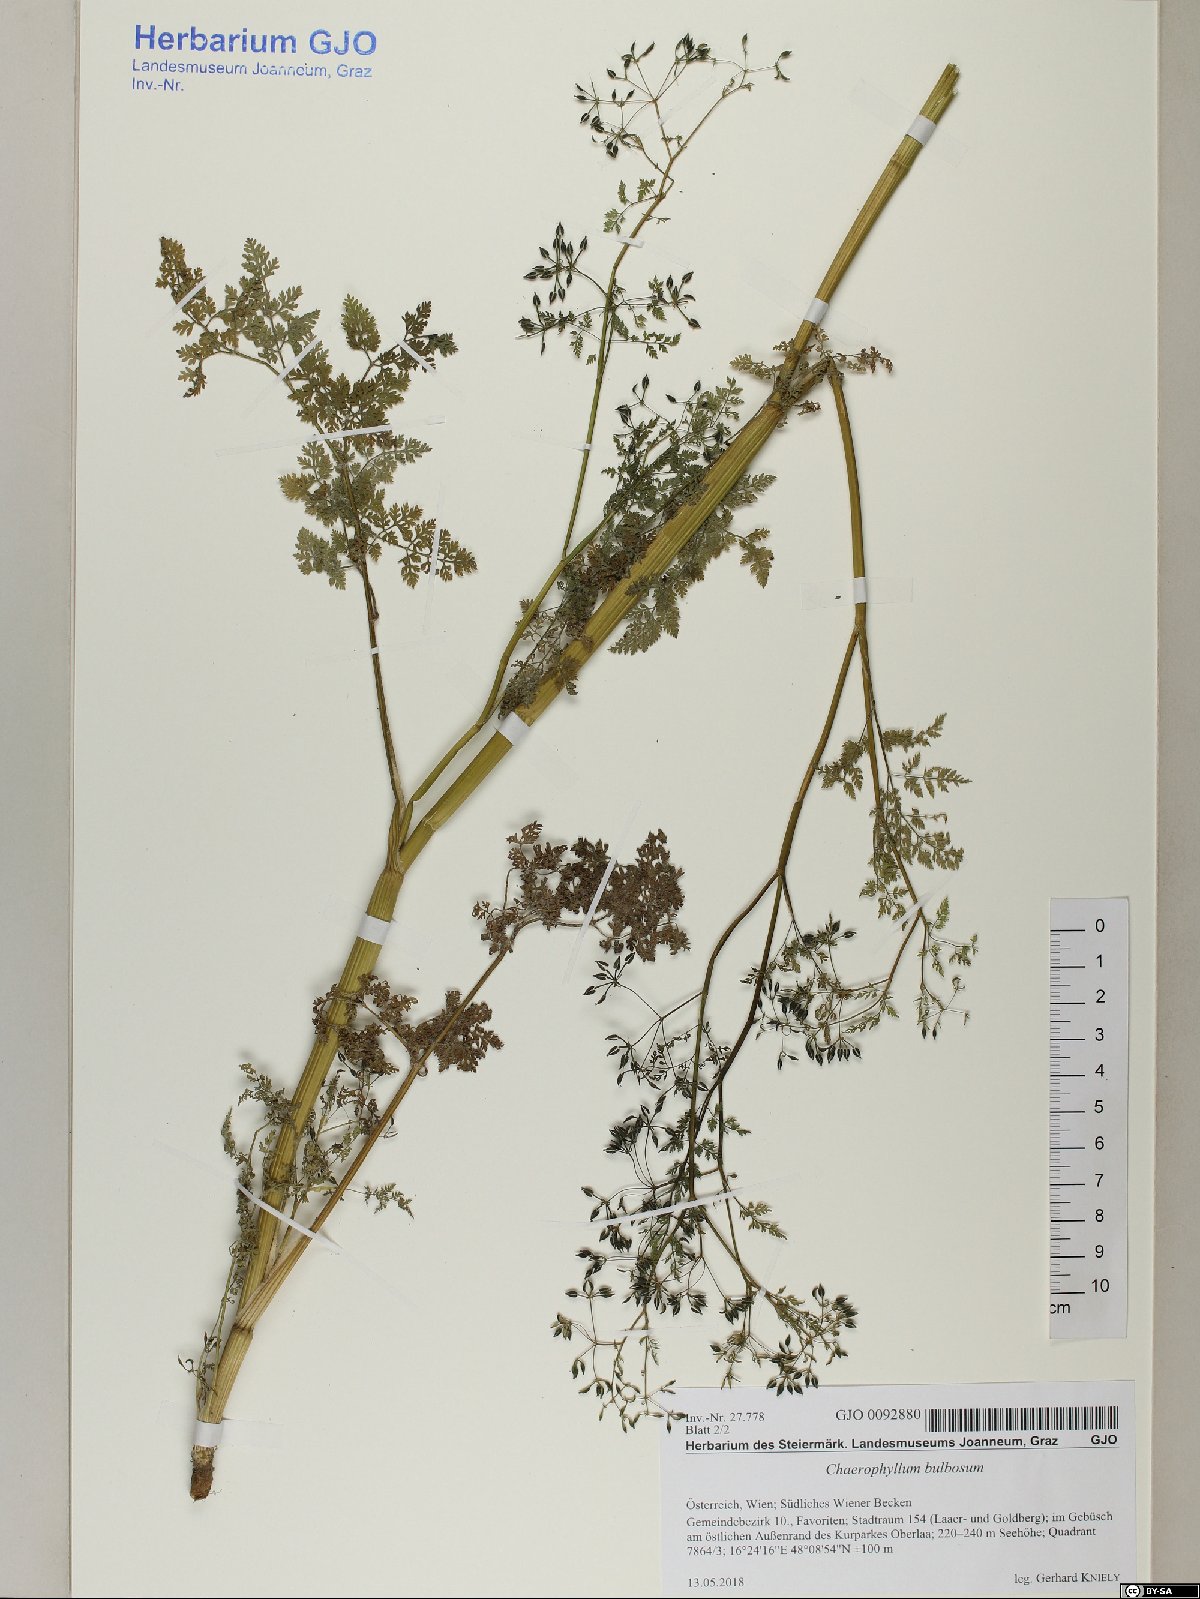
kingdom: Plantae
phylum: Tracheophyta
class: Magnoliopsida
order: Apiales
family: Apiaceae
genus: Chaerophyllum
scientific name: Chaerophyllum bulbosum
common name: Bulbous chervil
